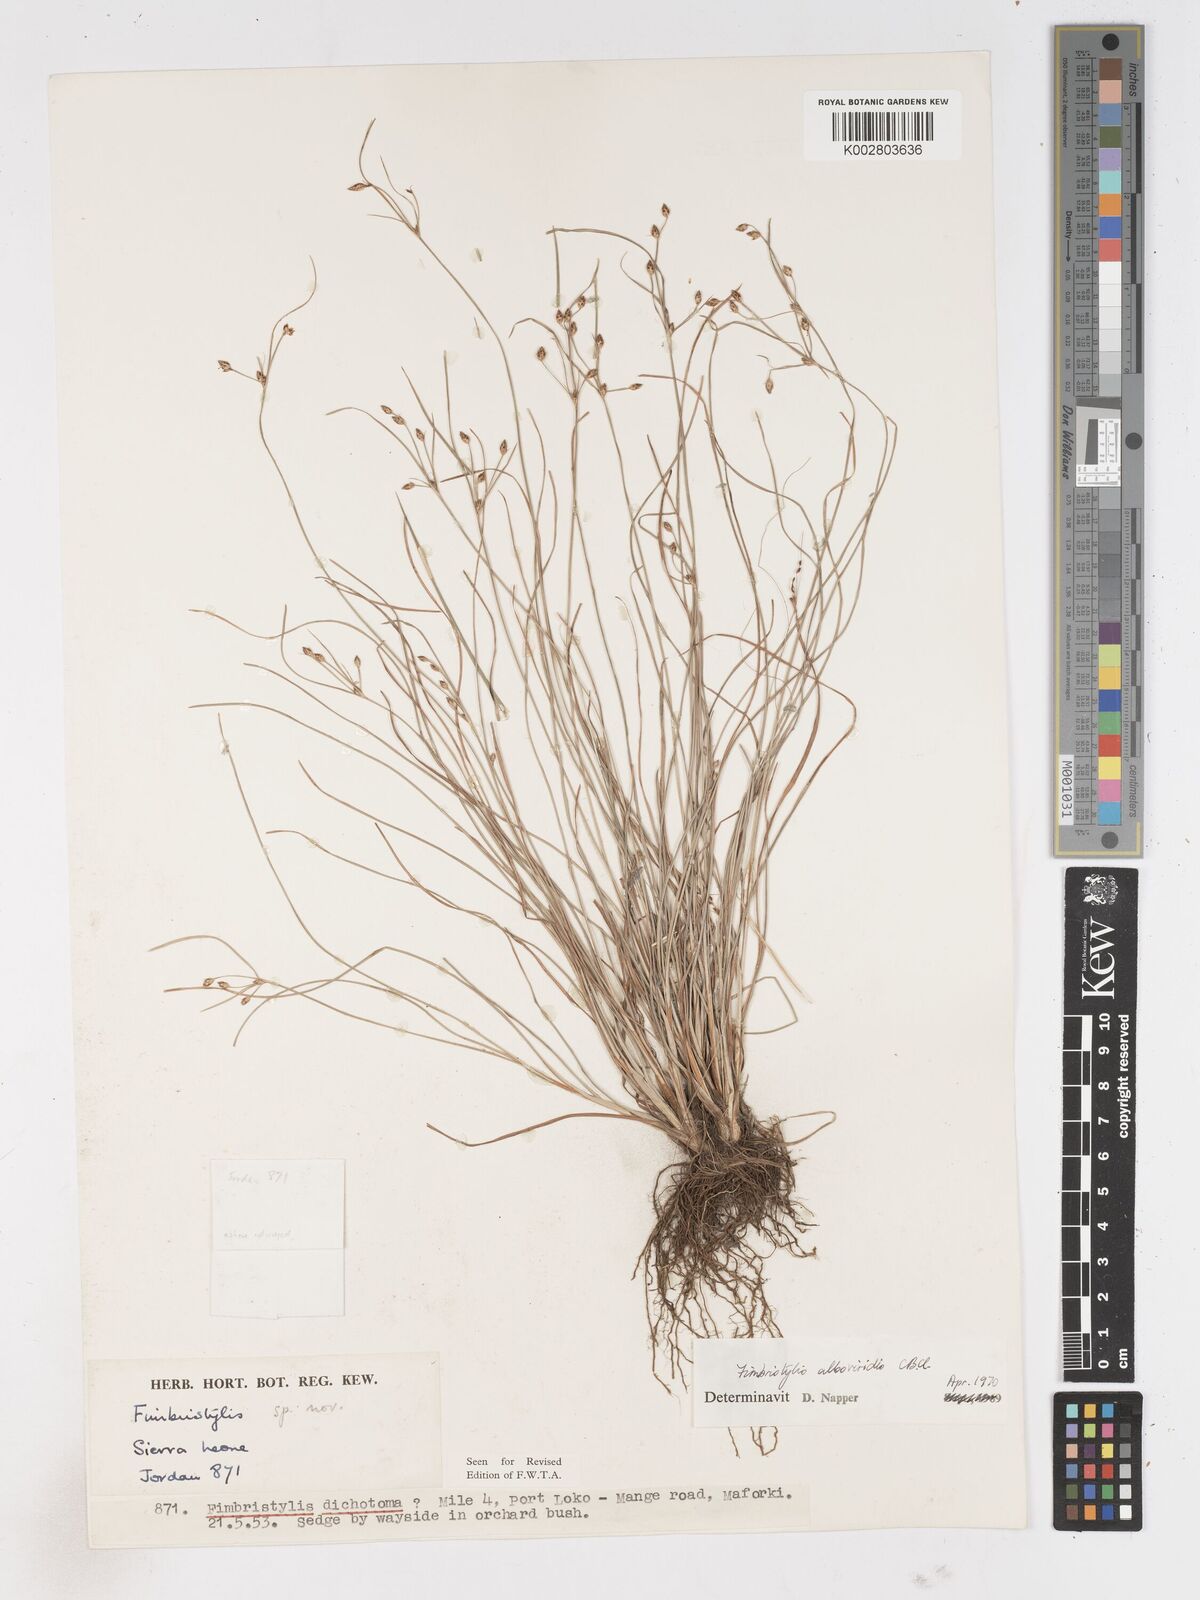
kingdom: Plantae
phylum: Tracheophyta
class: Liliopsida
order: Poales
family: Cyperaceae
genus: Fimbristylis
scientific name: Fimbristylis alboviridis
